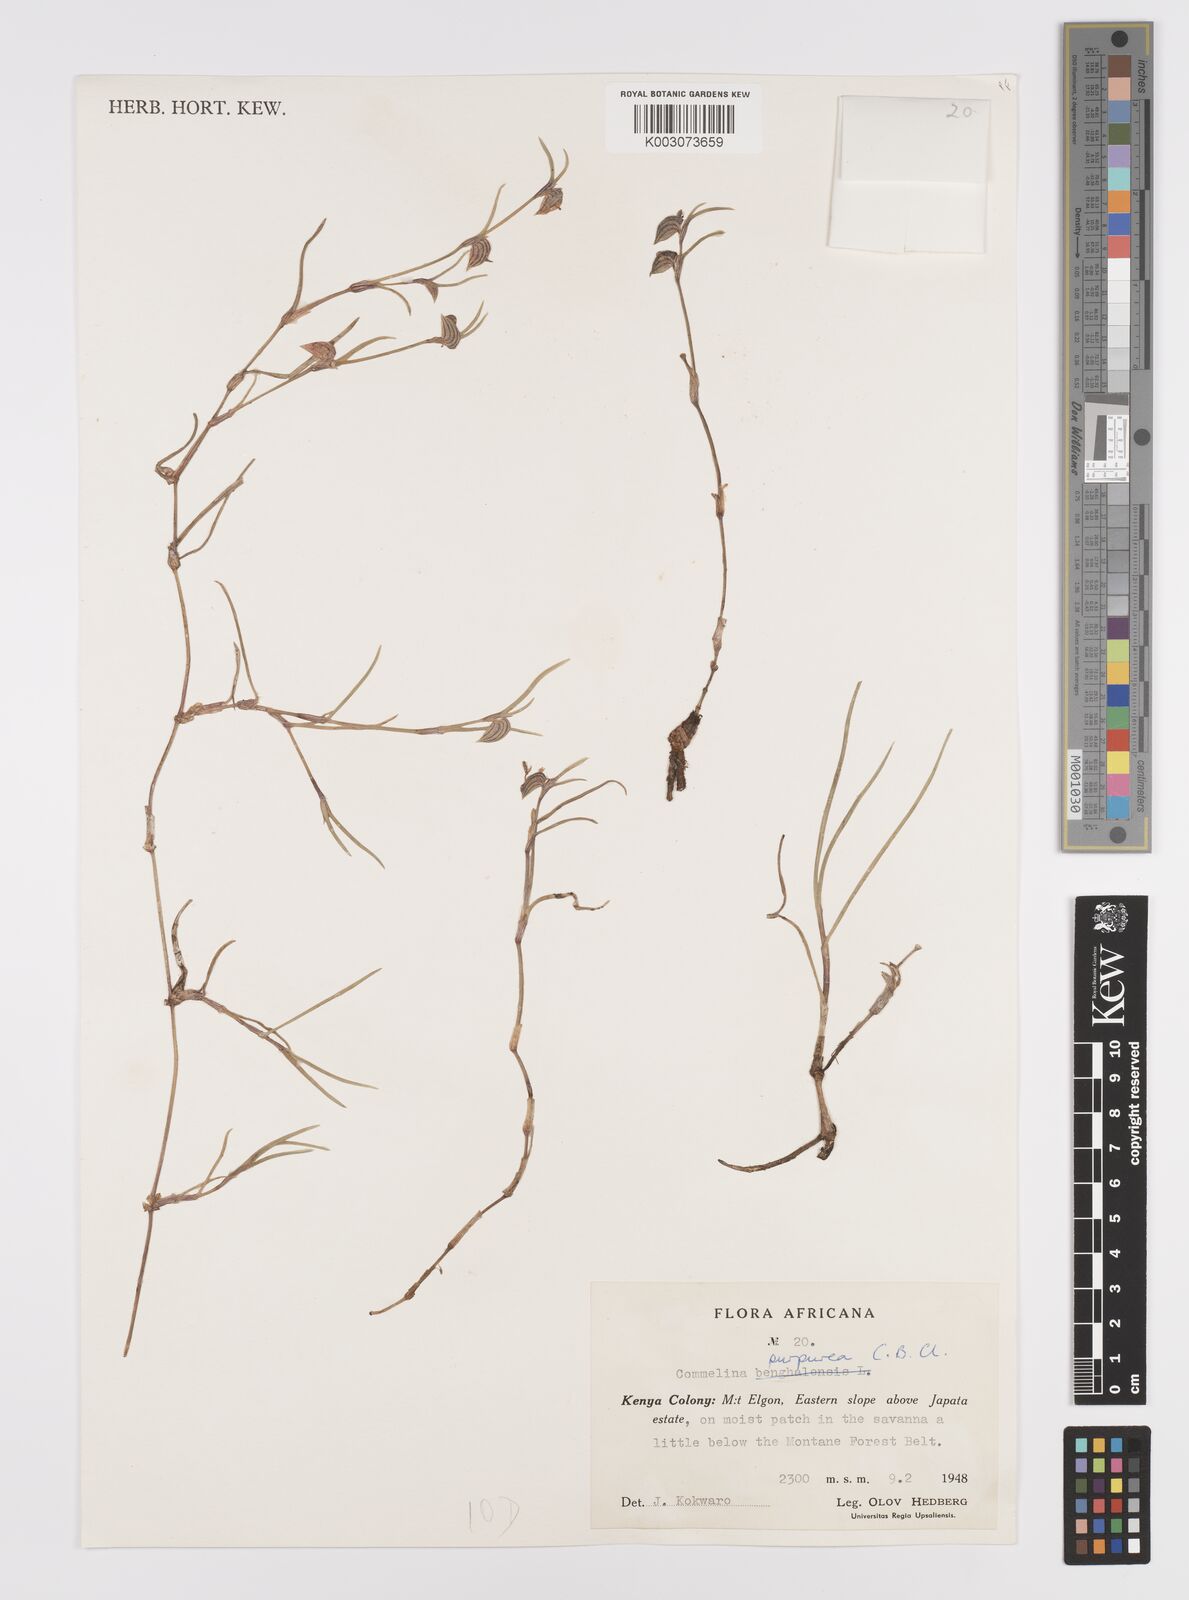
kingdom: Plantae
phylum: Tracheophyta
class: Liliopsida
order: Commelinales
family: Commelinaceae
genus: Commelina
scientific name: Commelina purpurea
